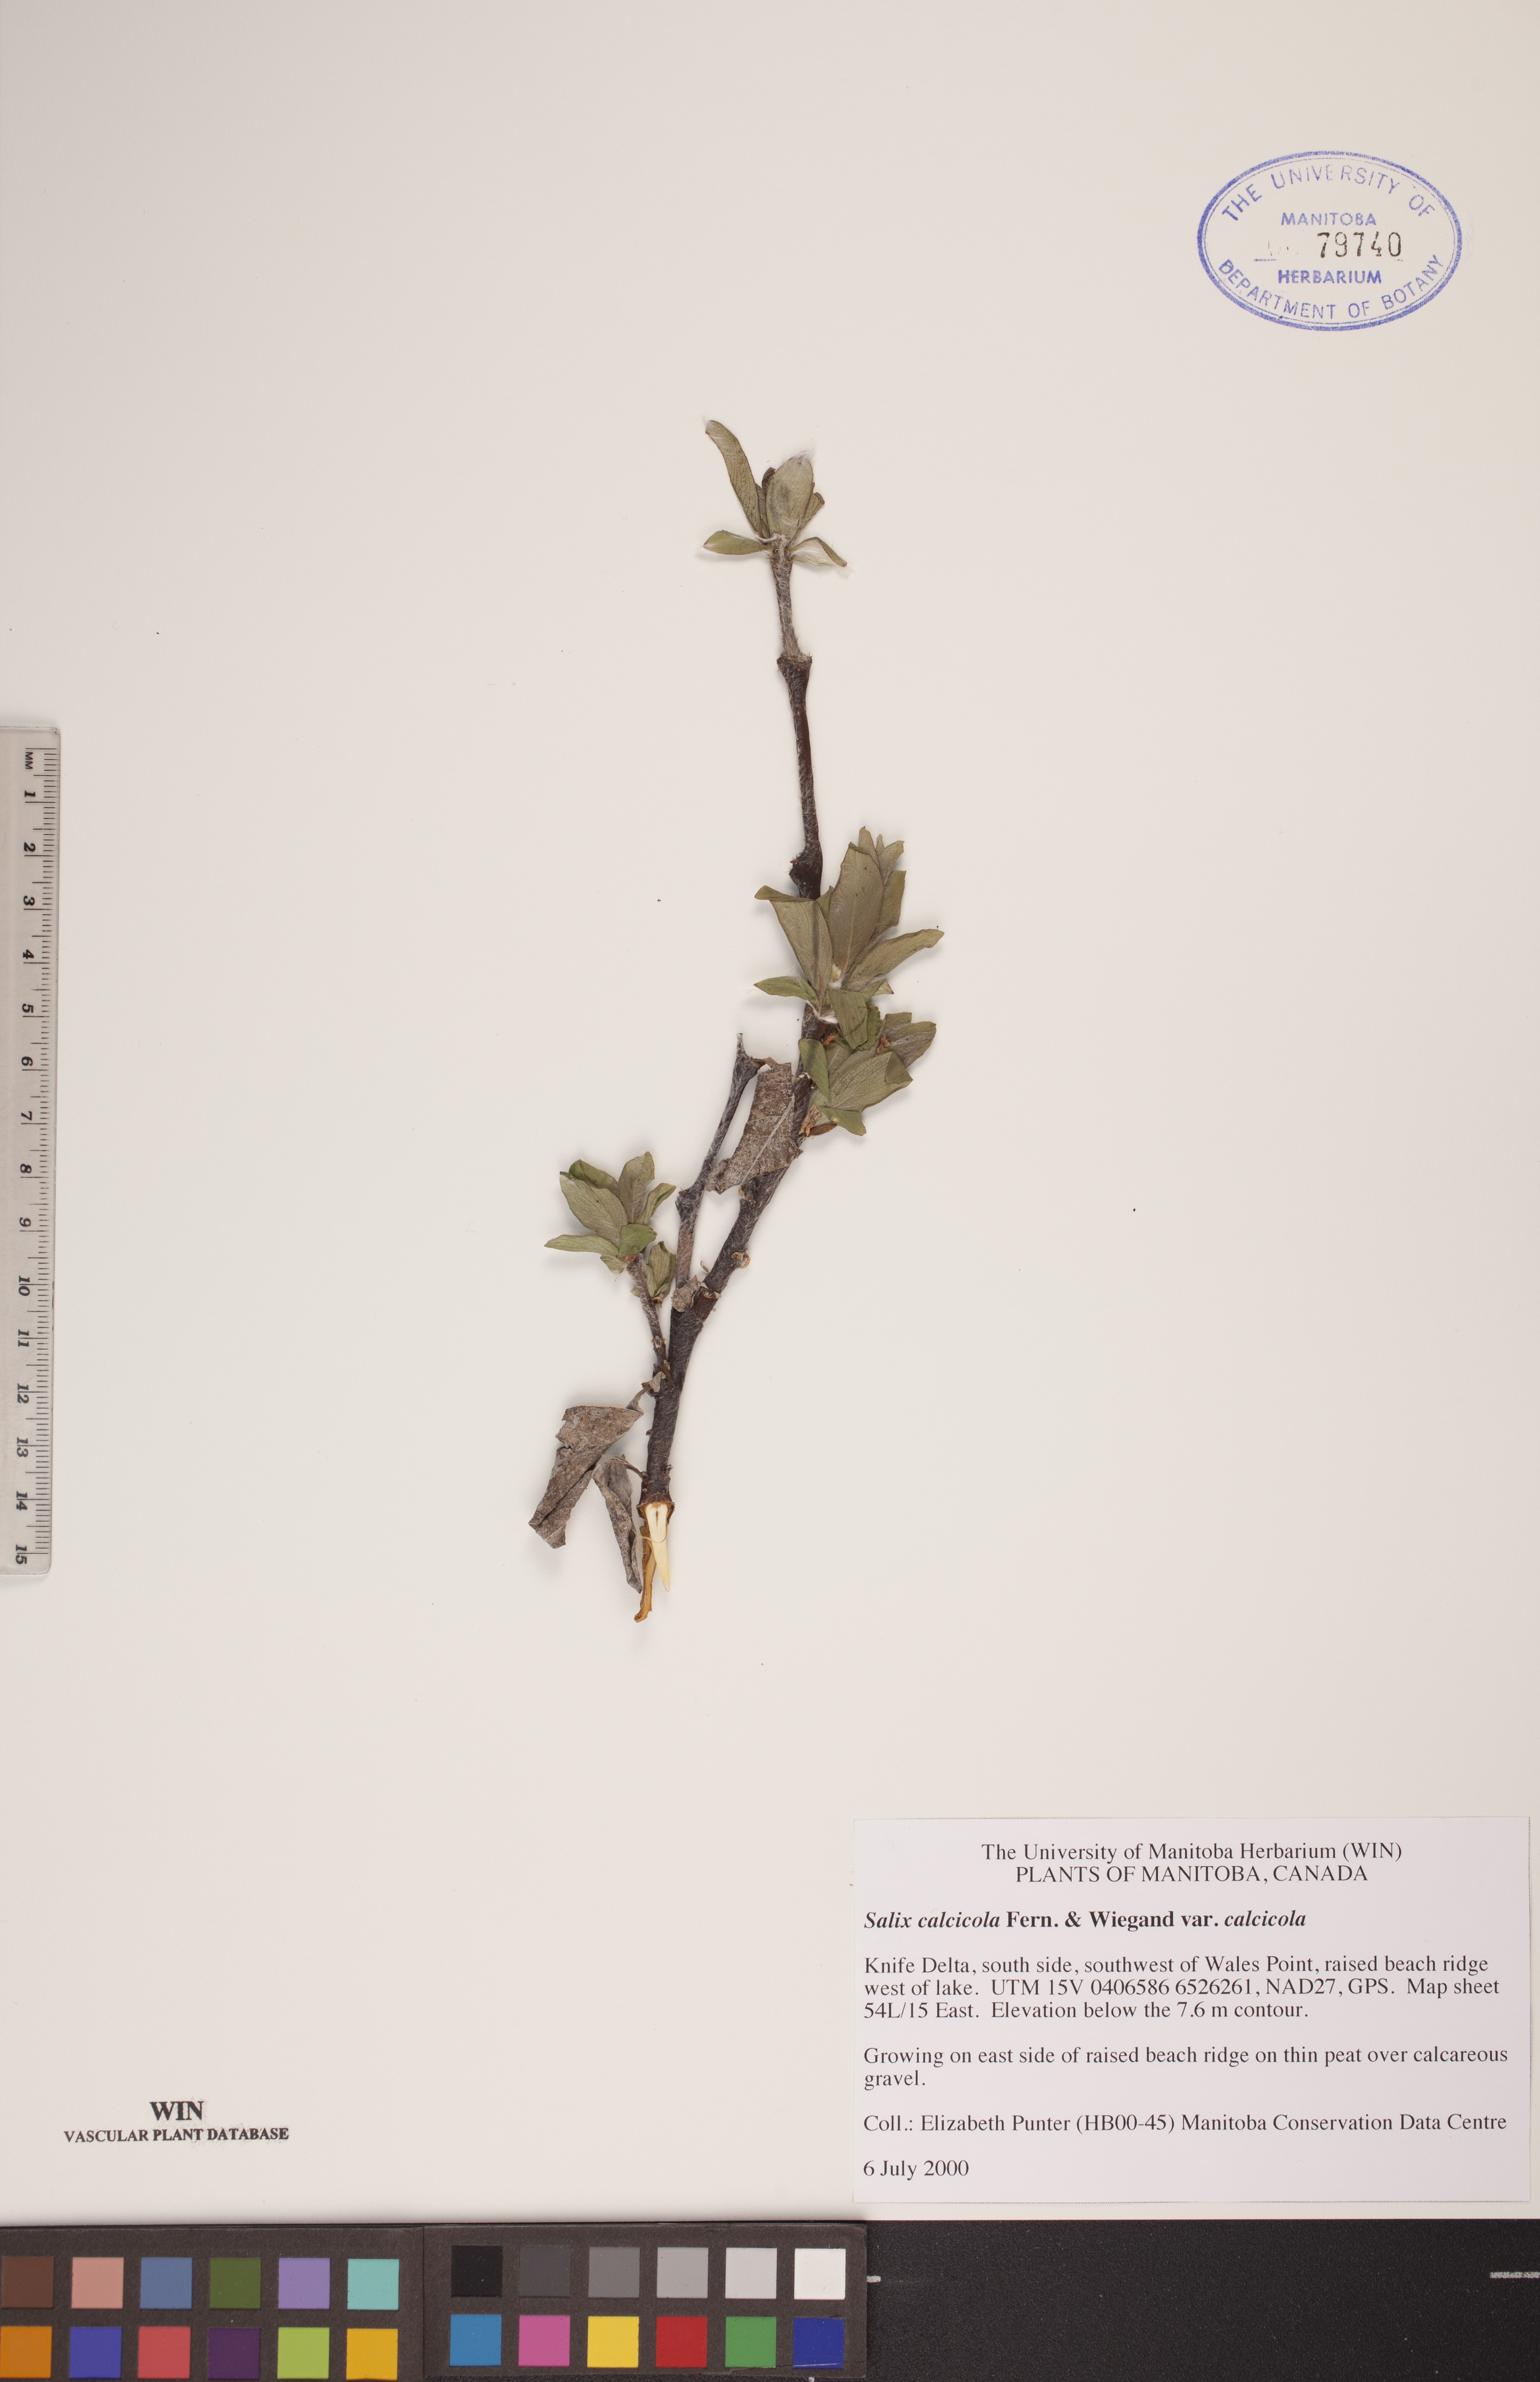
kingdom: Plantae
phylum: Tracheophyta
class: Magnoliopsida
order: Malpighiales
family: Salicaceae
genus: Salix
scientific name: Salix calcicola
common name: Calcareous willow
